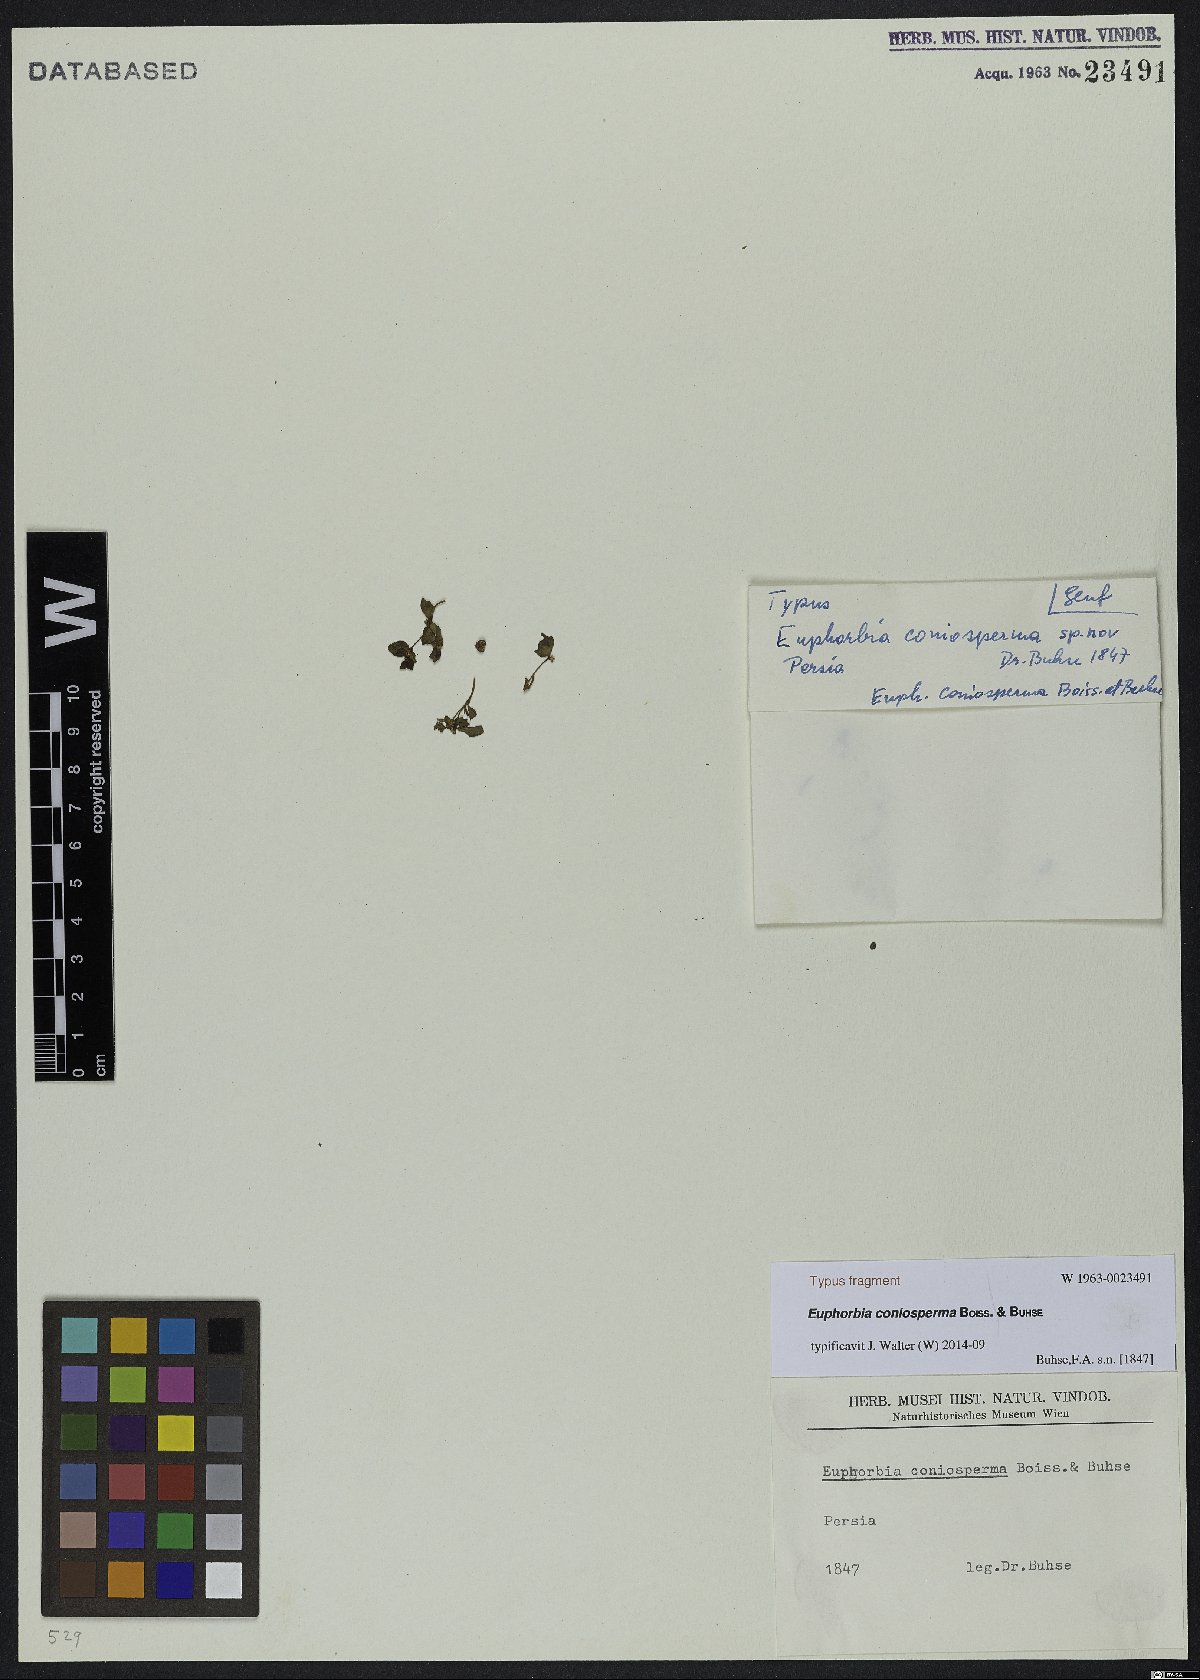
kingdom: Plantae
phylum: Tracheophyta
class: Magnoliopsida
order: Malpighiales
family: Euphorbiaceae
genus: Euphorbia
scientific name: Euphorbia coniosperma
